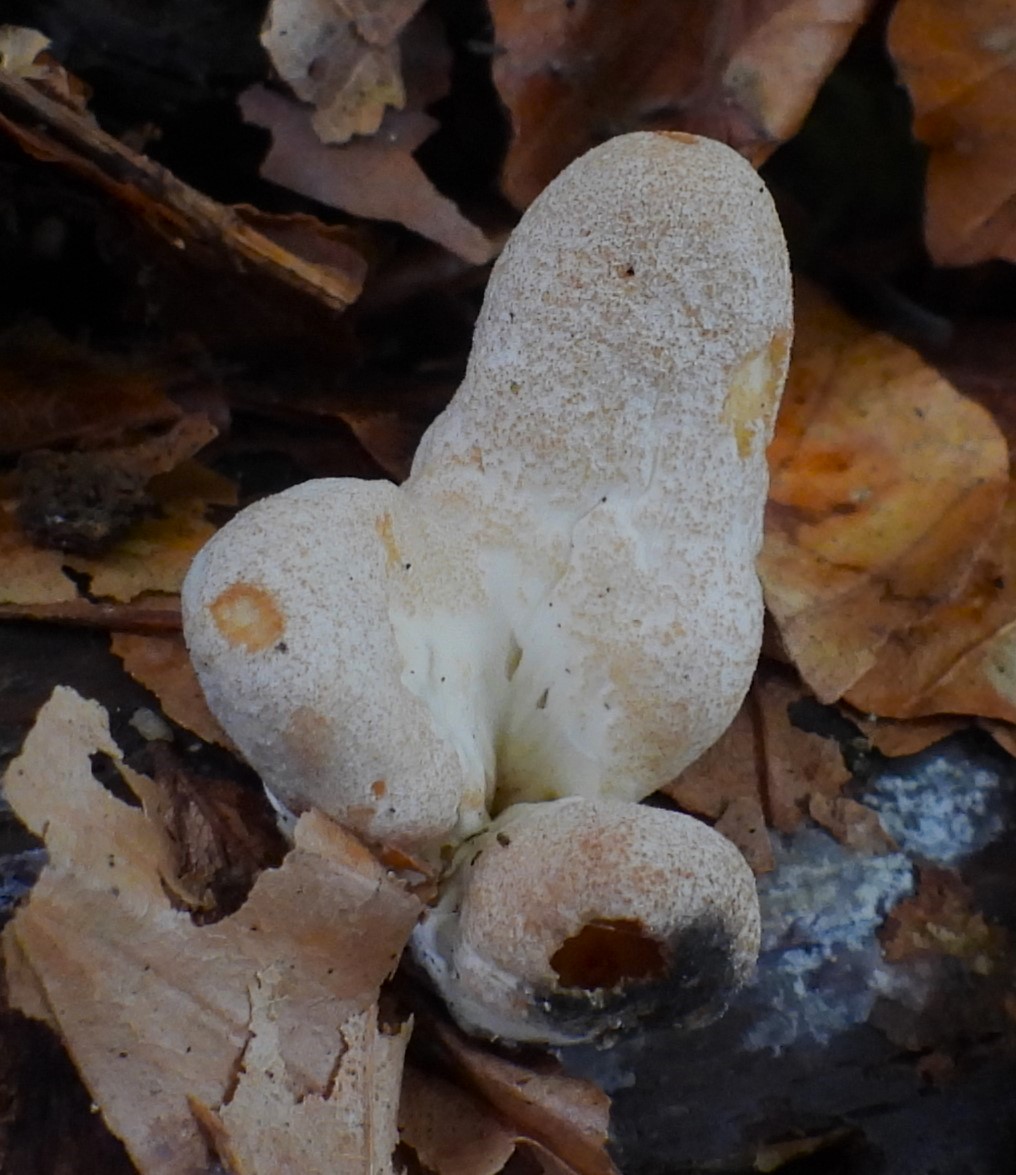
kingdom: Fungi
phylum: Basidiomycota
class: Agaricomycetes
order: Gomphales
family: Clavariadelphaceae
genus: Clavariadelphus
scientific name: Clavariadelphus pistillaris
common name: herkules-kæmpekølle
